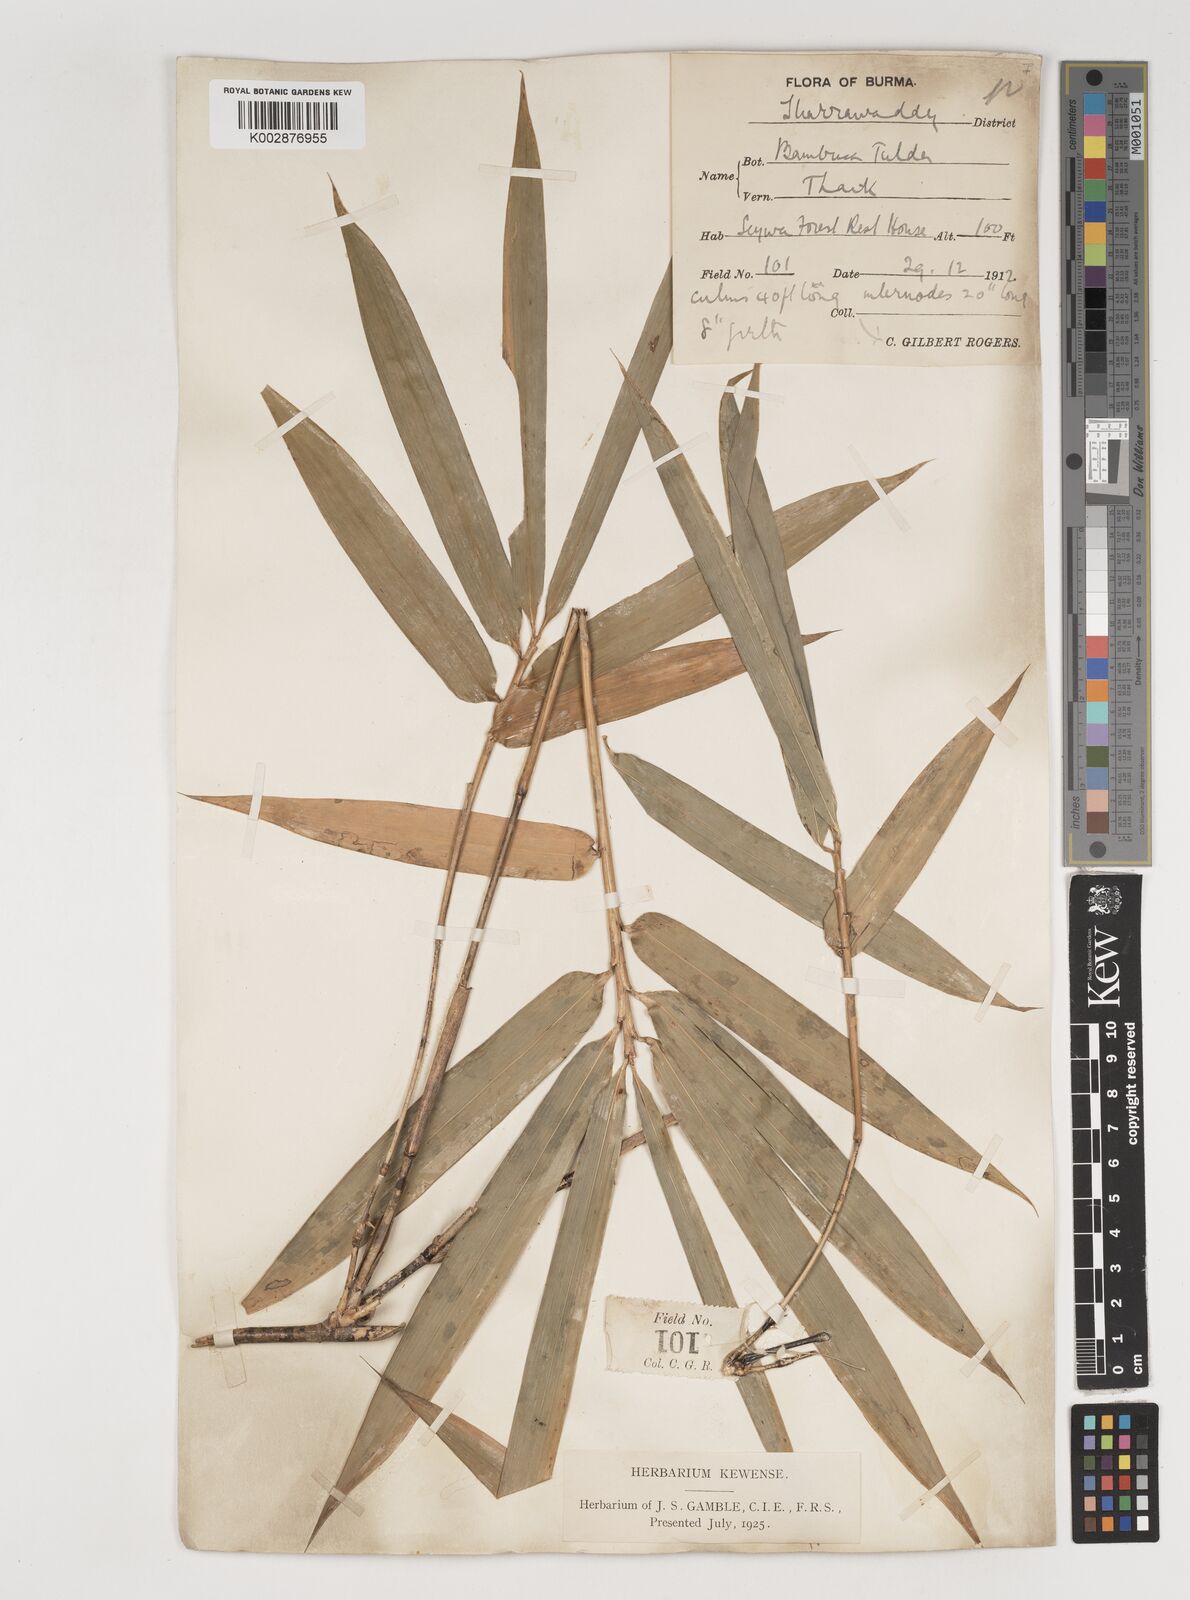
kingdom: Plantae
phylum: Tracheophyta
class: Liliopsida
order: Poales
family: Poaceae
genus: Bambusa
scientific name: Bambusa tulda
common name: Bengal bamboo
